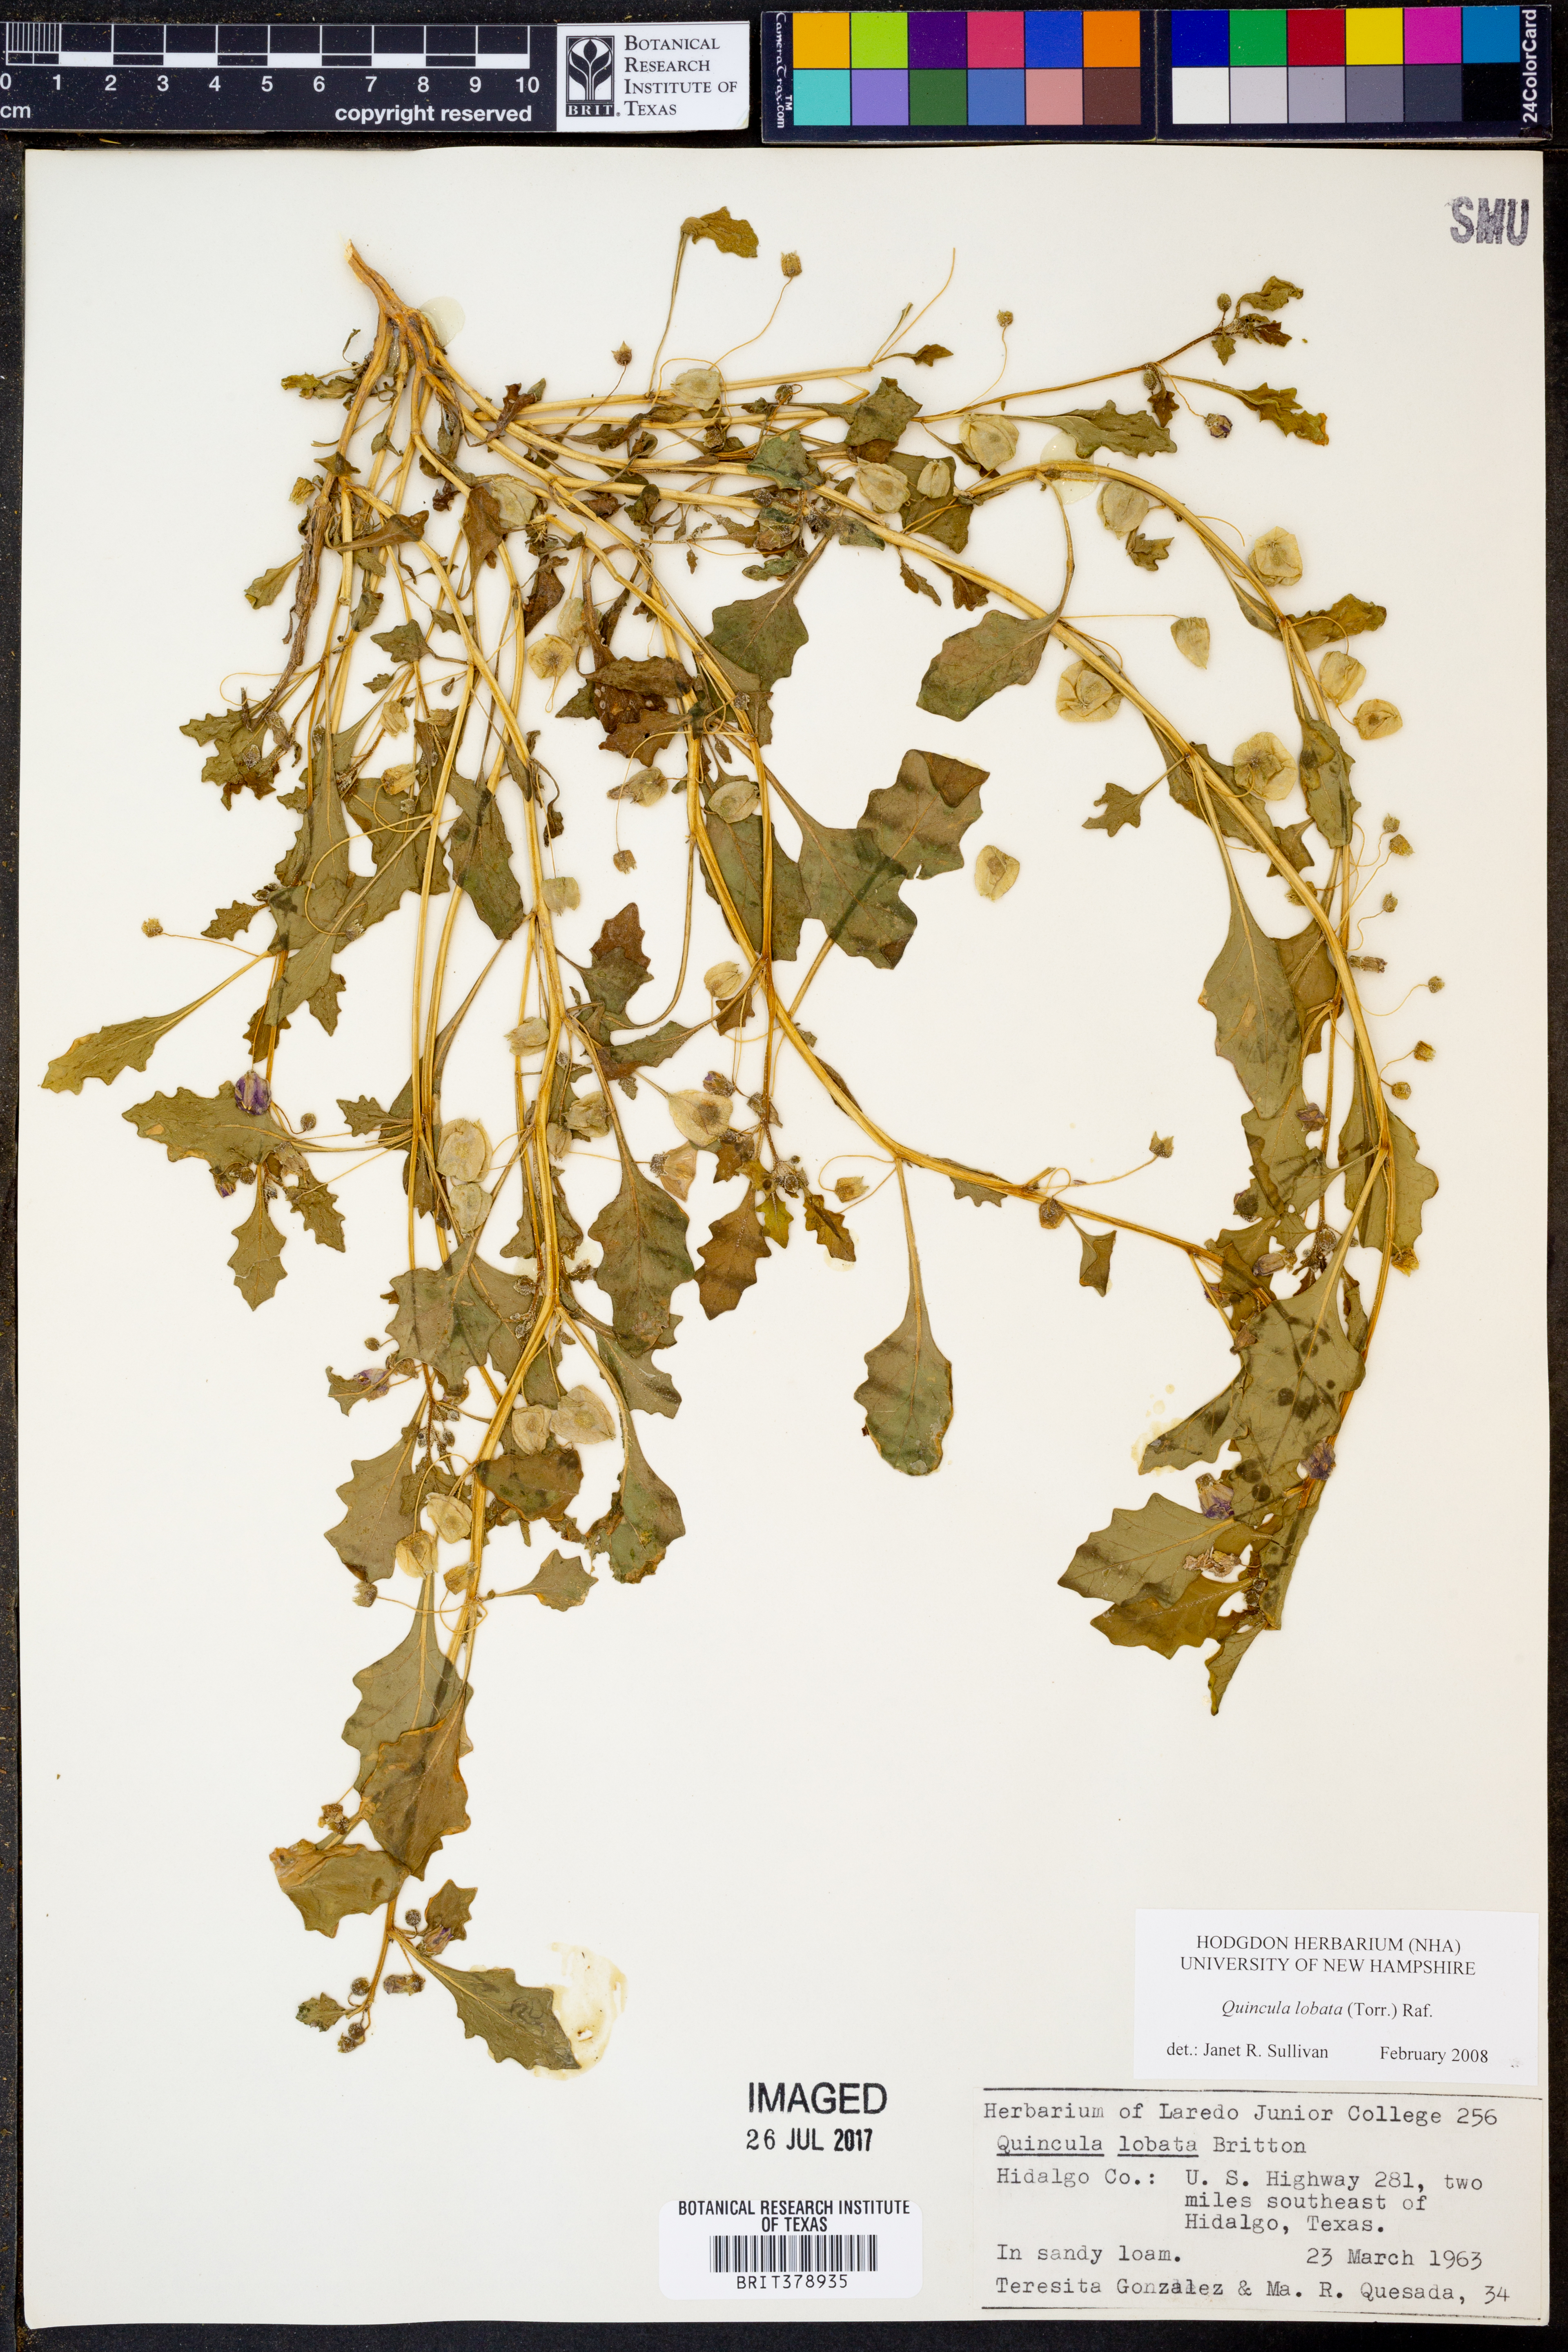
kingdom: Plantae
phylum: Tracheophyta
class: Magnoliopsida
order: Solanales
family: Solanaceae
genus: Quincula
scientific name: Quincula lobata
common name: Purple-ground-cherry
